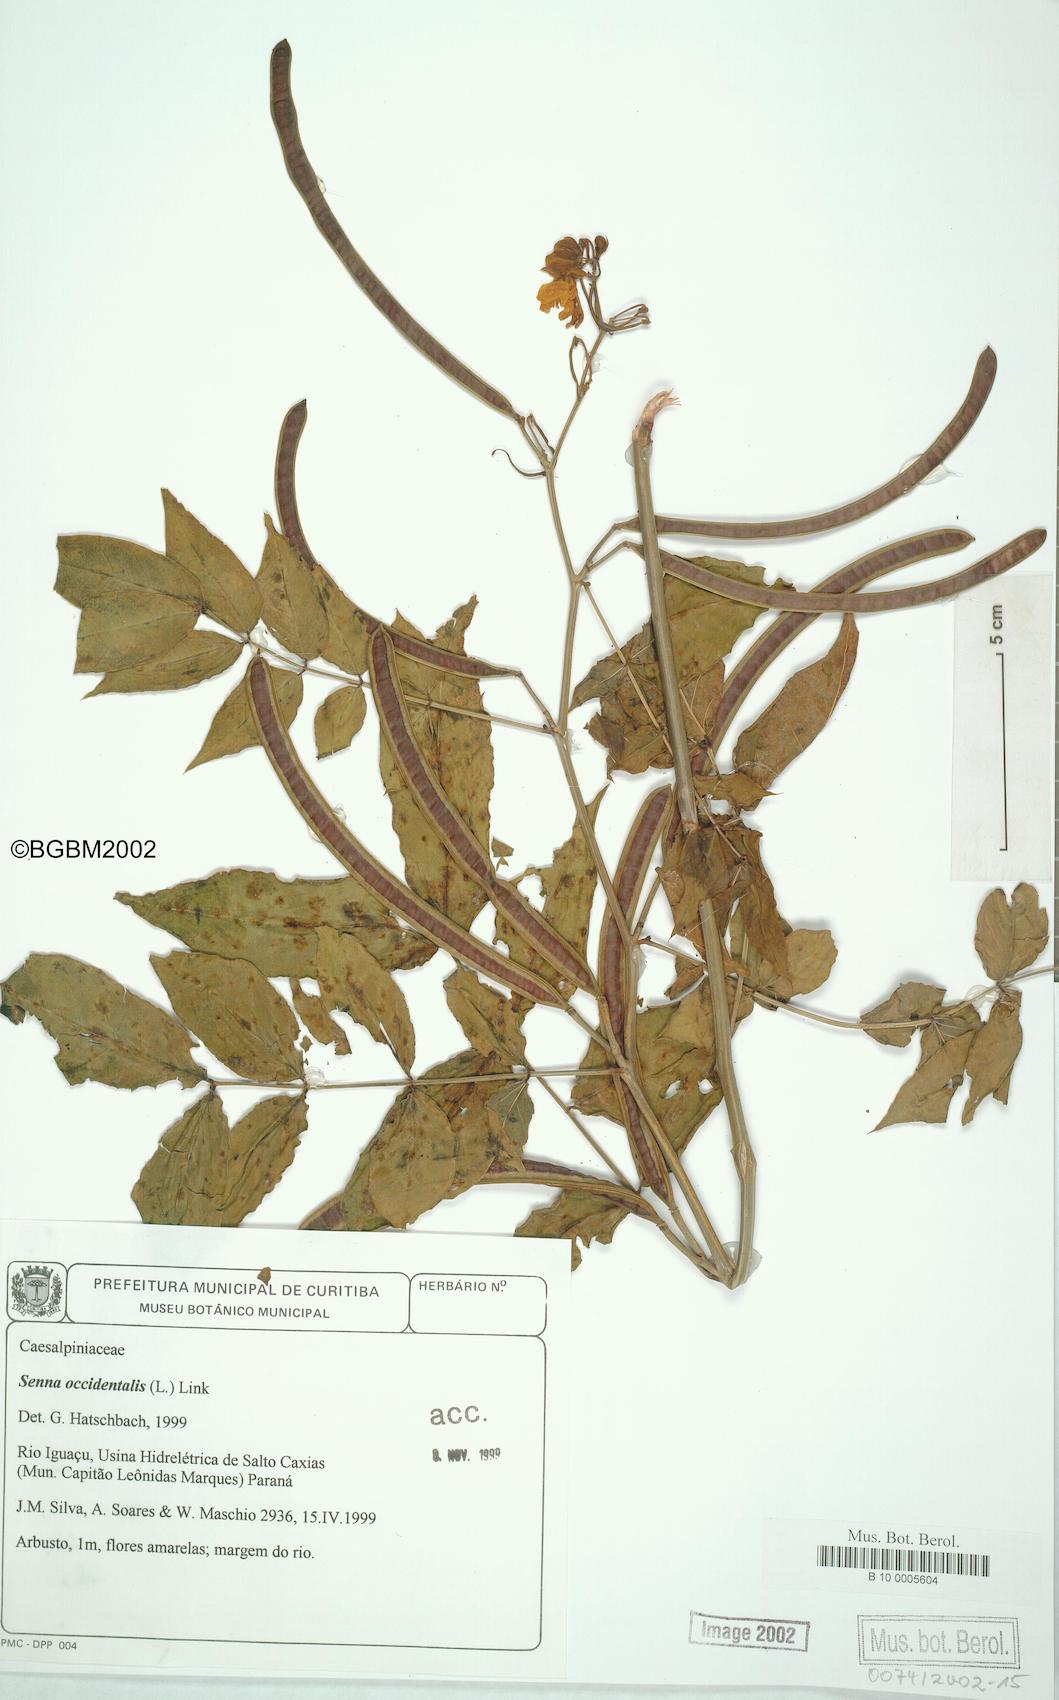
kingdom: Plantae
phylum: Tracheophyta
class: Magnoliopsida
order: Fabales
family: Fabaceae
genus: Senna
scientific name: Senna occidentalis
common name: Septicweed
